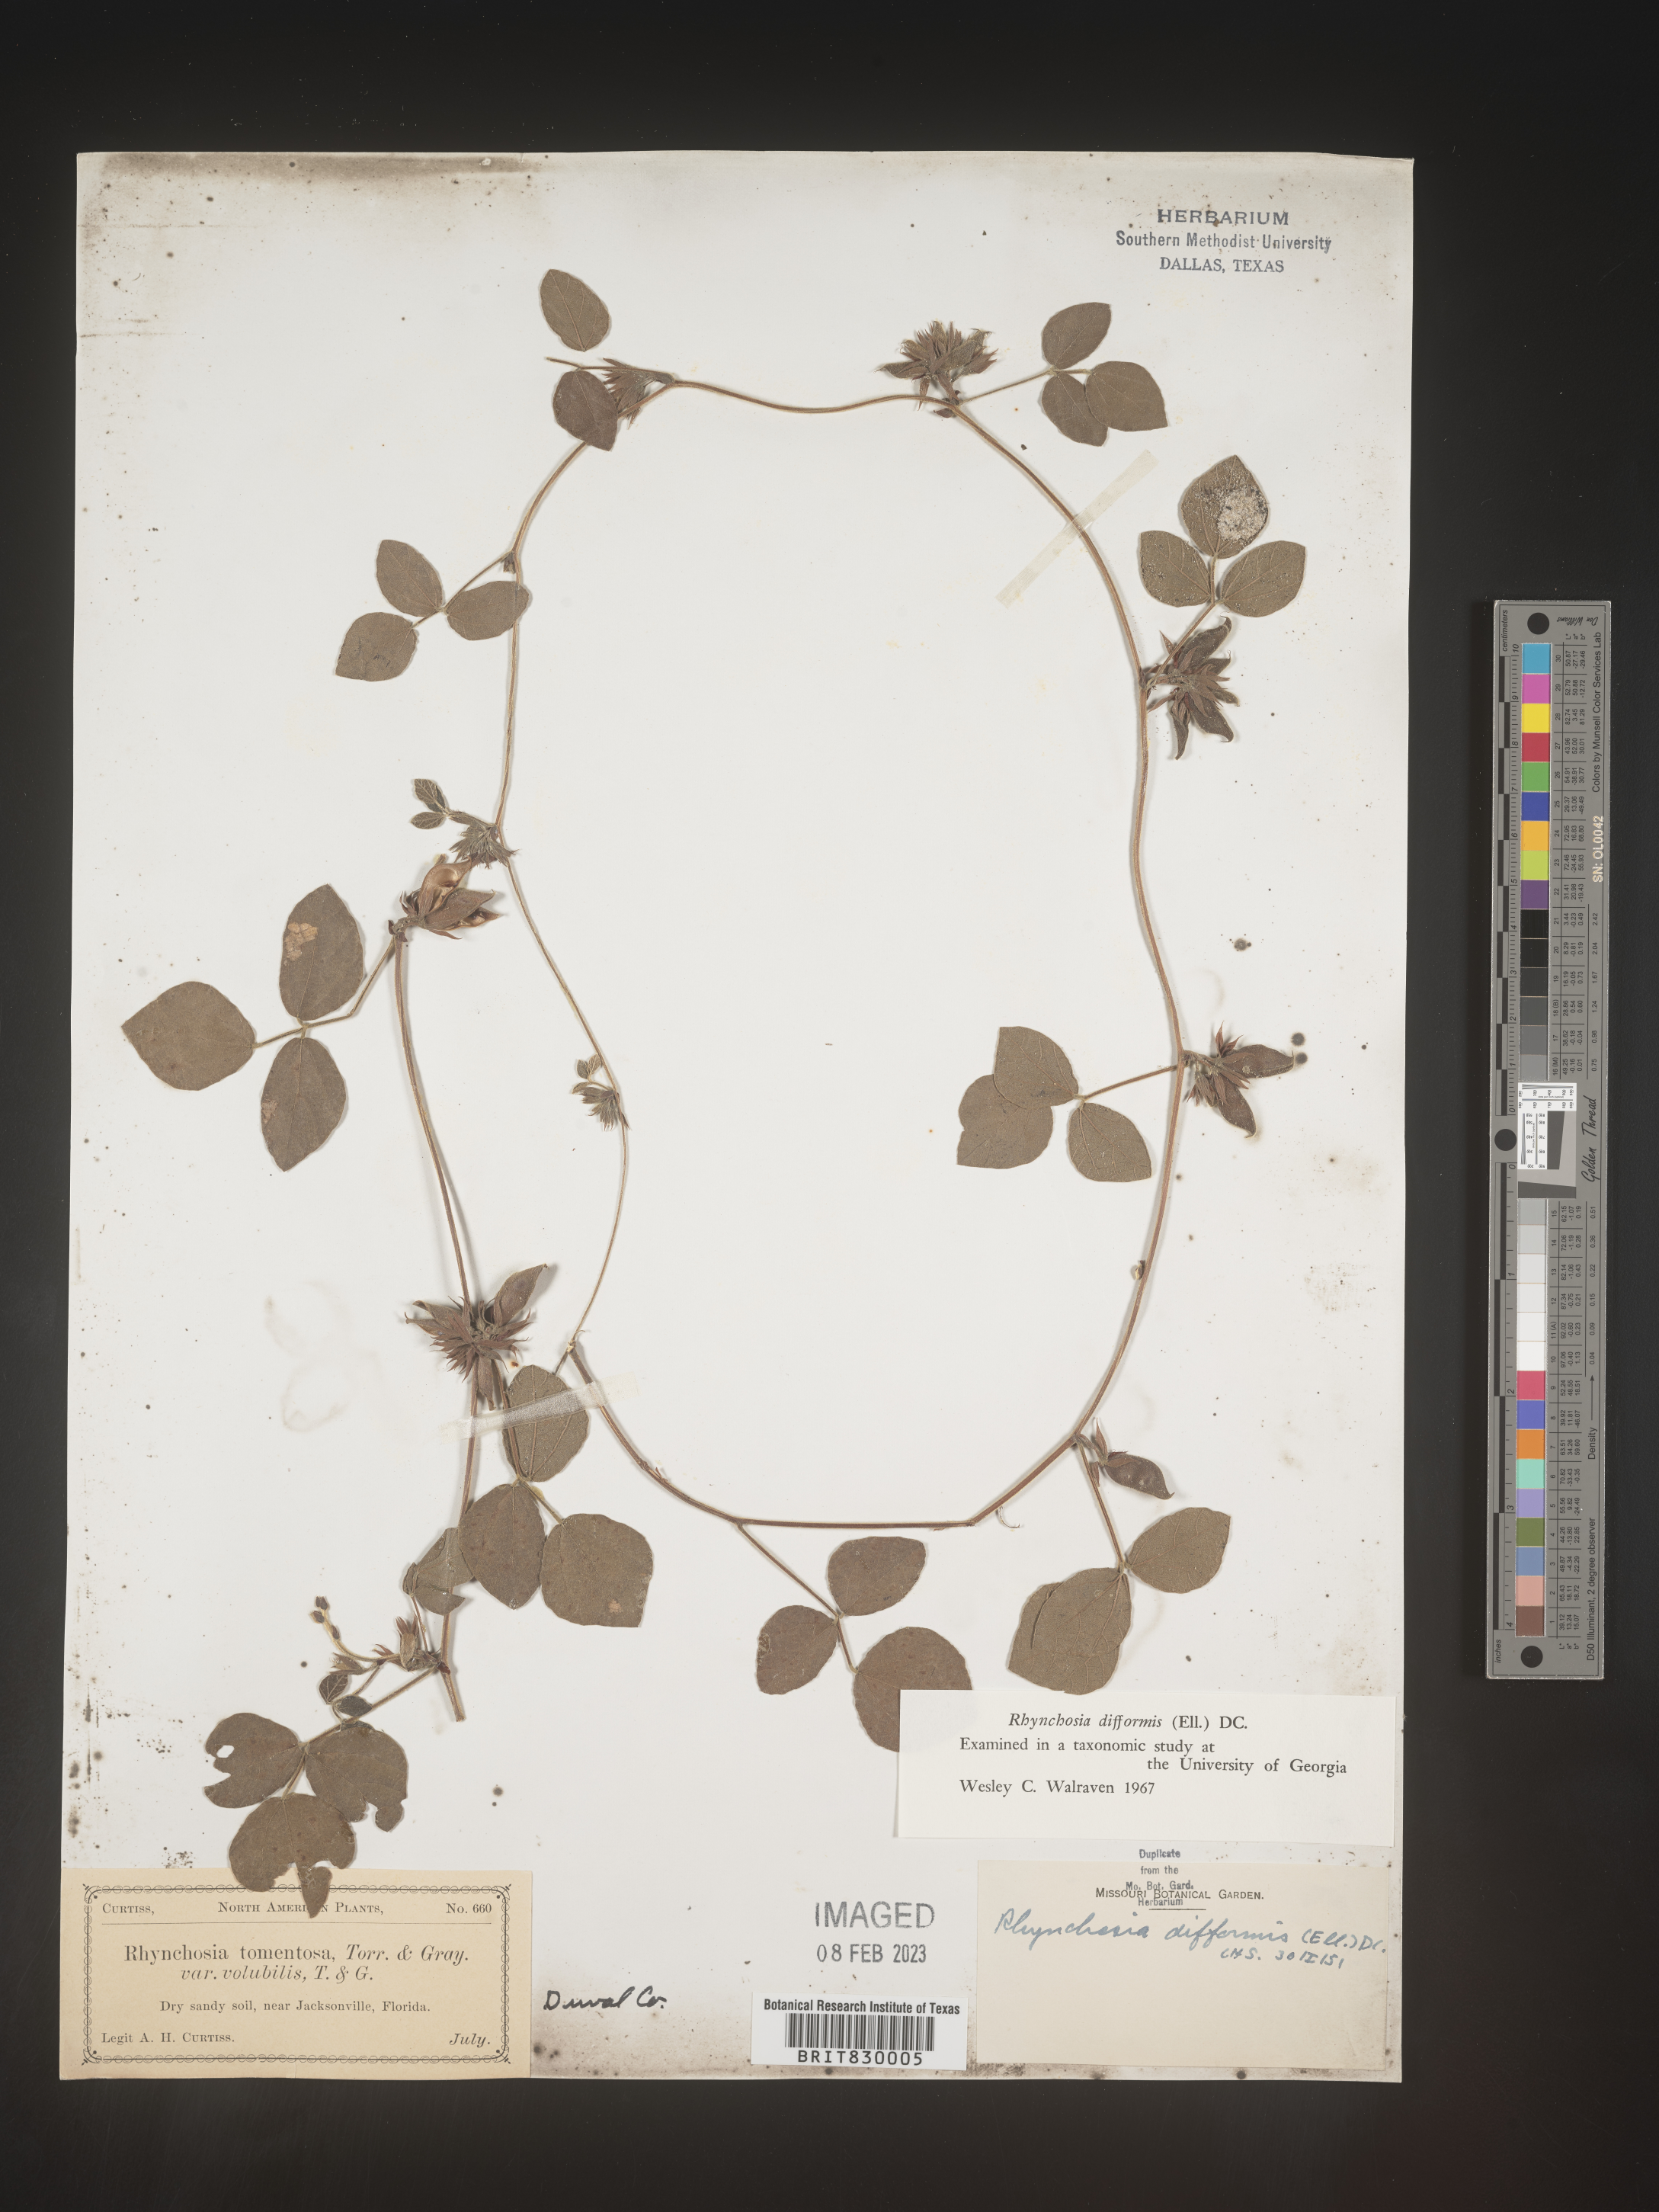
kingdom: Plantae
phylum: Tracheophyta
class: Magnoliopsida
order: Fabales
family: Fabaceae
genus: Rhynchosia
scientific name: Rhynchosia difformis
